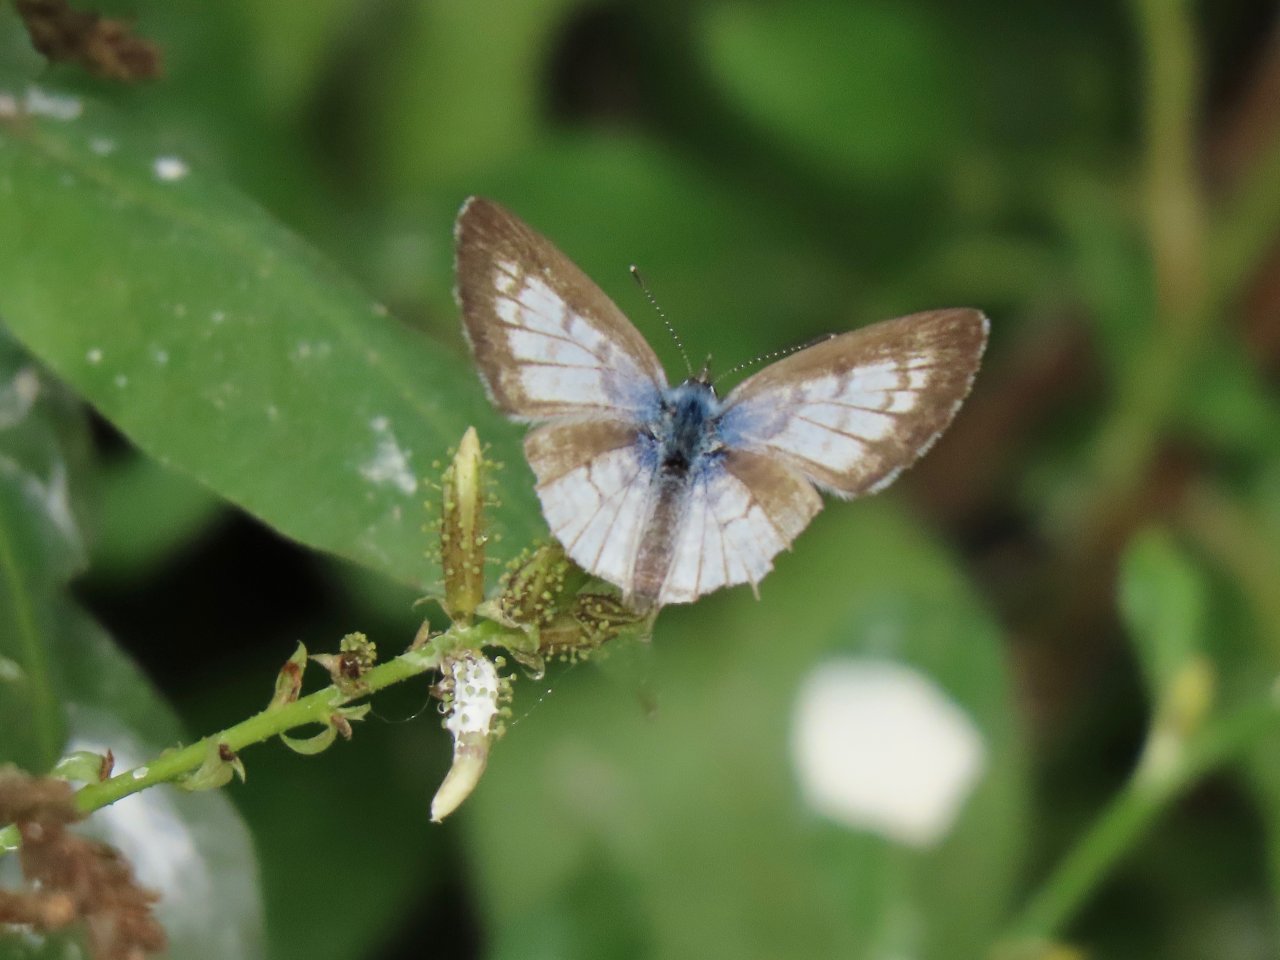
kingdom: Animalia
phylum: Arthropoda
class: Insecta
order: Lepidoptera
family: Lycaenidae
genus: Leptotes
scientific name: Leptotes cassius
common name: Cassius Blue
